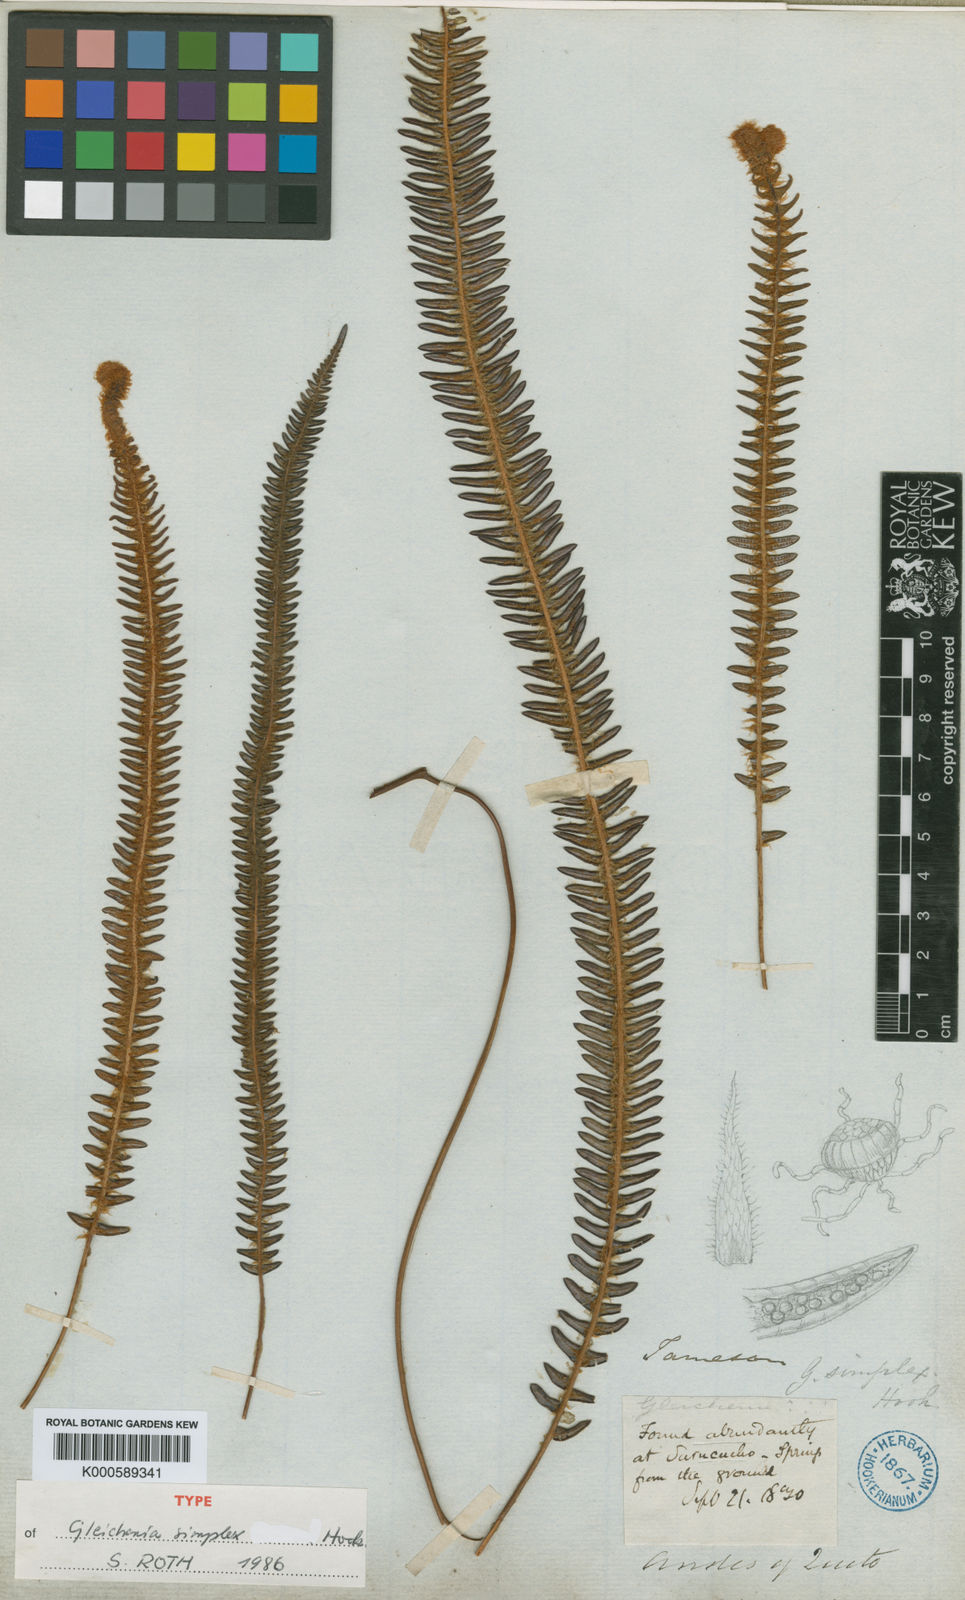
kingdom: Plantae
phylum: Tracheophyta
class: Polypodiopsida
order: Gleicheniales
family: Gleicheniaceae
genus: Sticherus
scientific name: Sticherus simplex
